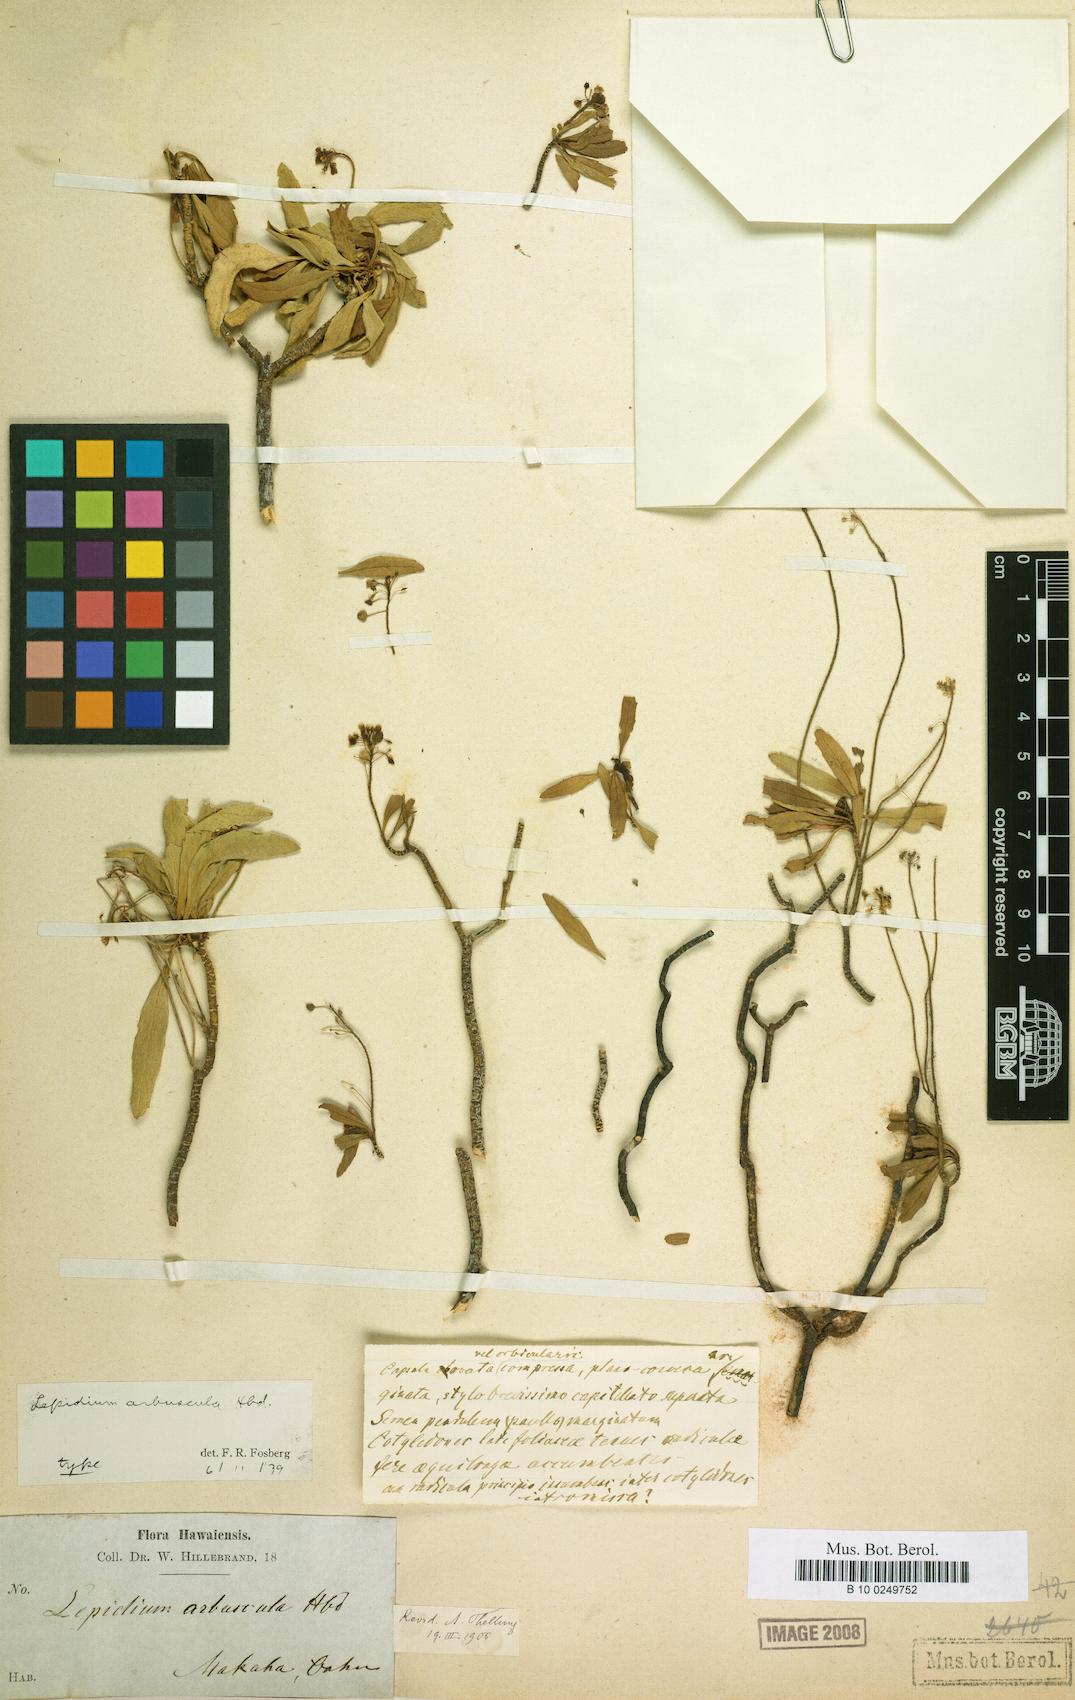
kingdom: Plantae
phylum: Tracheophyta
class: Magnoliopsida
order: Brassicales
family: Brassicaceae
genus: Lepidium
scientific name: Lepidium arbuscula
